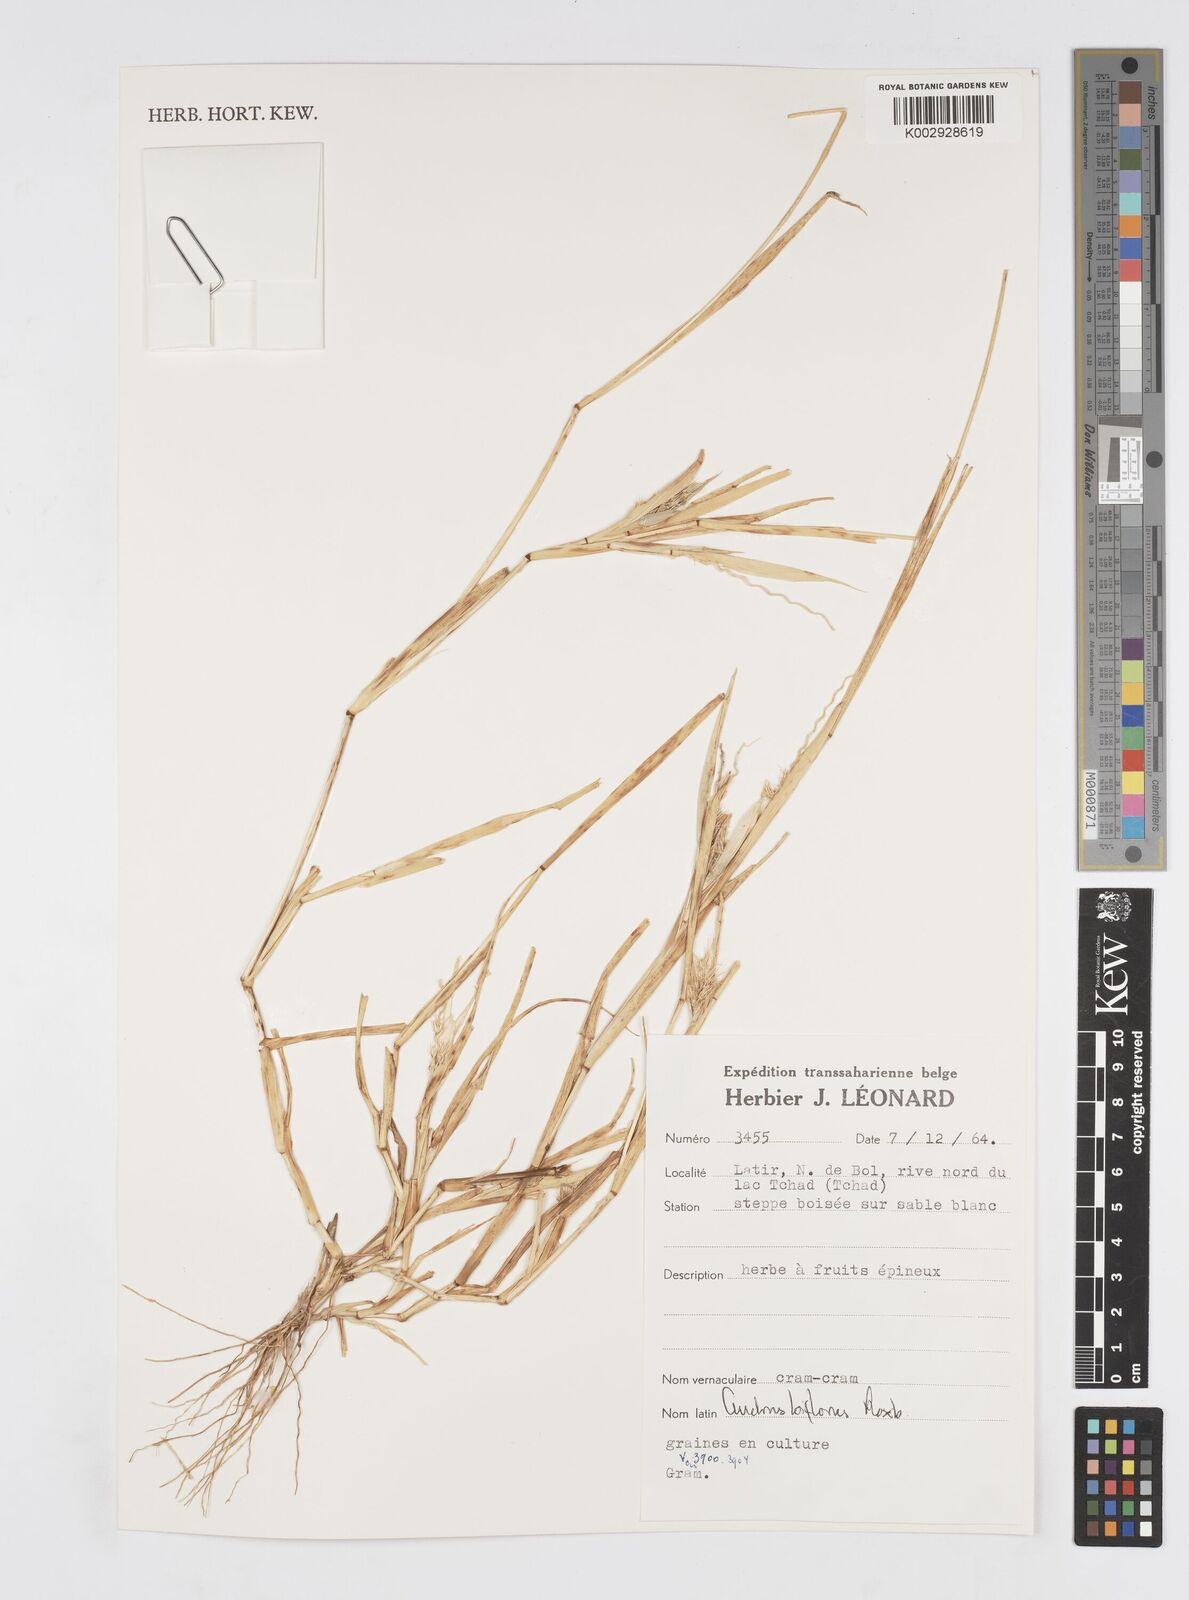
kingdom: Plantae
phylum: Tracheophyta
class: Liliopsida
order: Poales
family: Poaceae
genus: Cenchrus
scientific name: Cenchrus biflorus
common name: Indian sandbur
